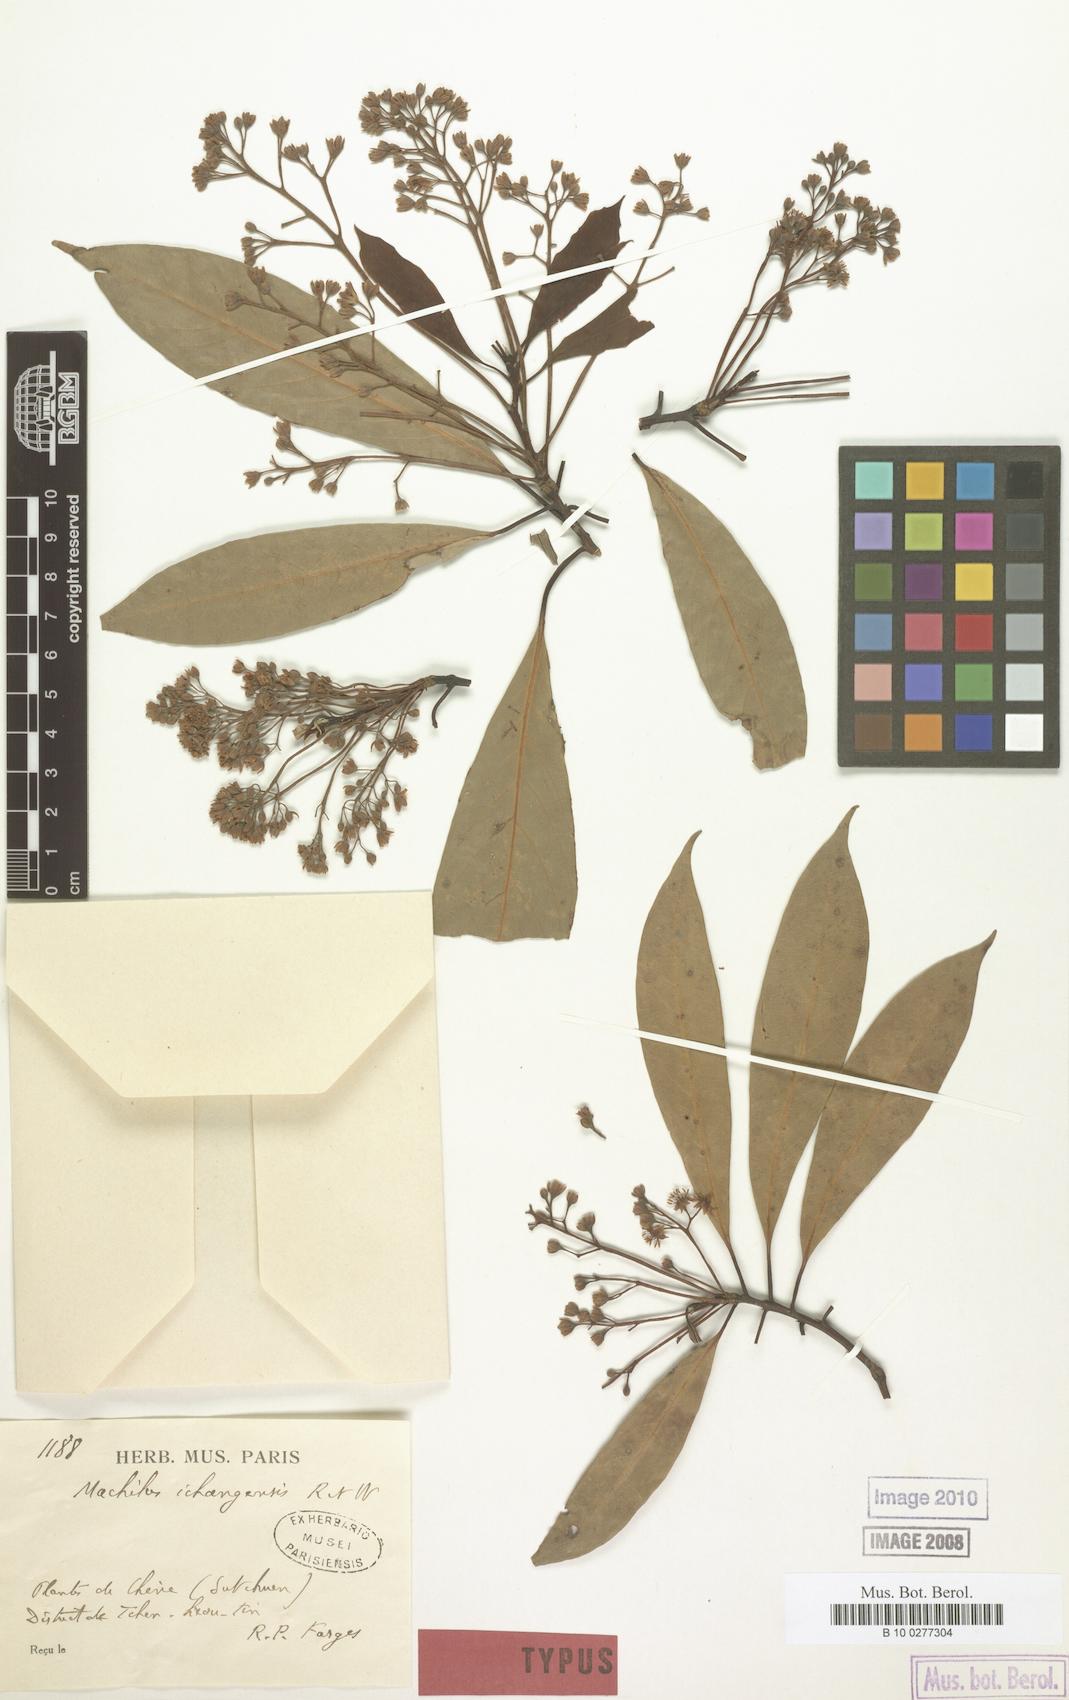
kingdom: Plantae
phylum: Tracheophyta
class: Magnoliopsida
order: Laurales
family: Lauraceae
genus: Machilus
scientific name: Machilus ichangensis
